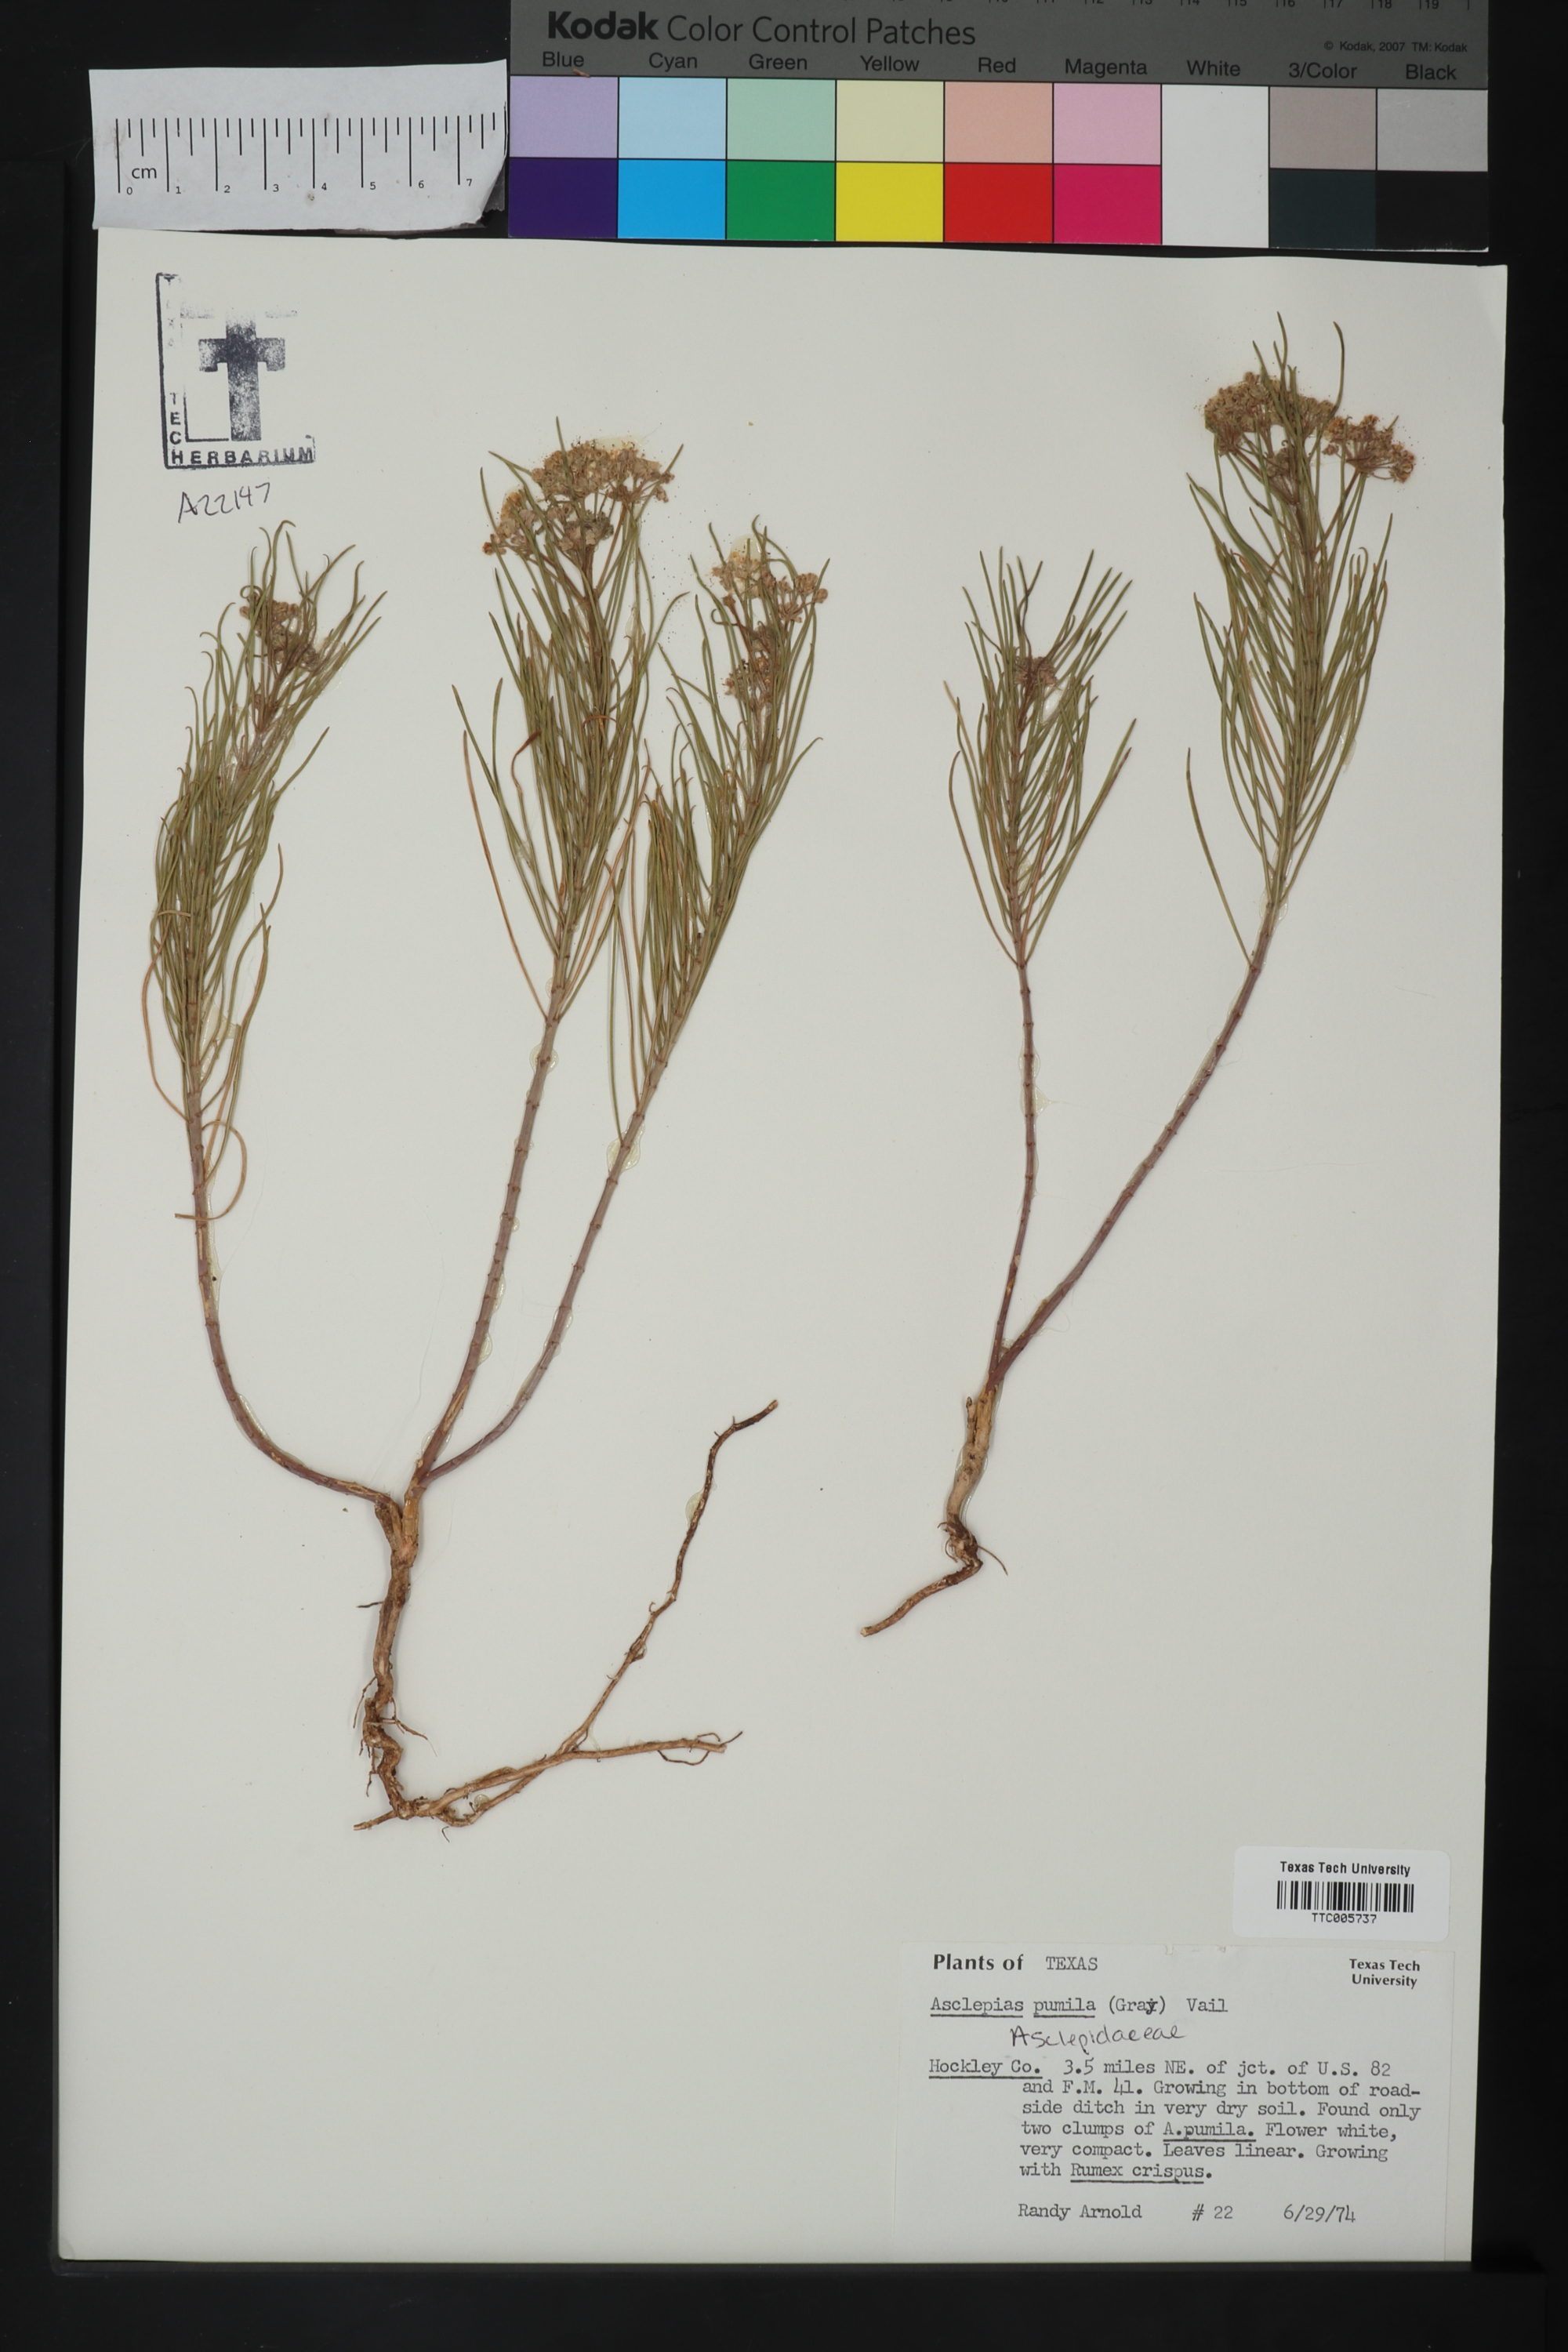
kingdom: Plantae
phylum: Tracheophyta
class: Magnoliopsida
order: Gentianales
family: Apocynaceae
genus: Asclepias
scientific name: Asclepias pumila
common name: Dwarf milkweed
